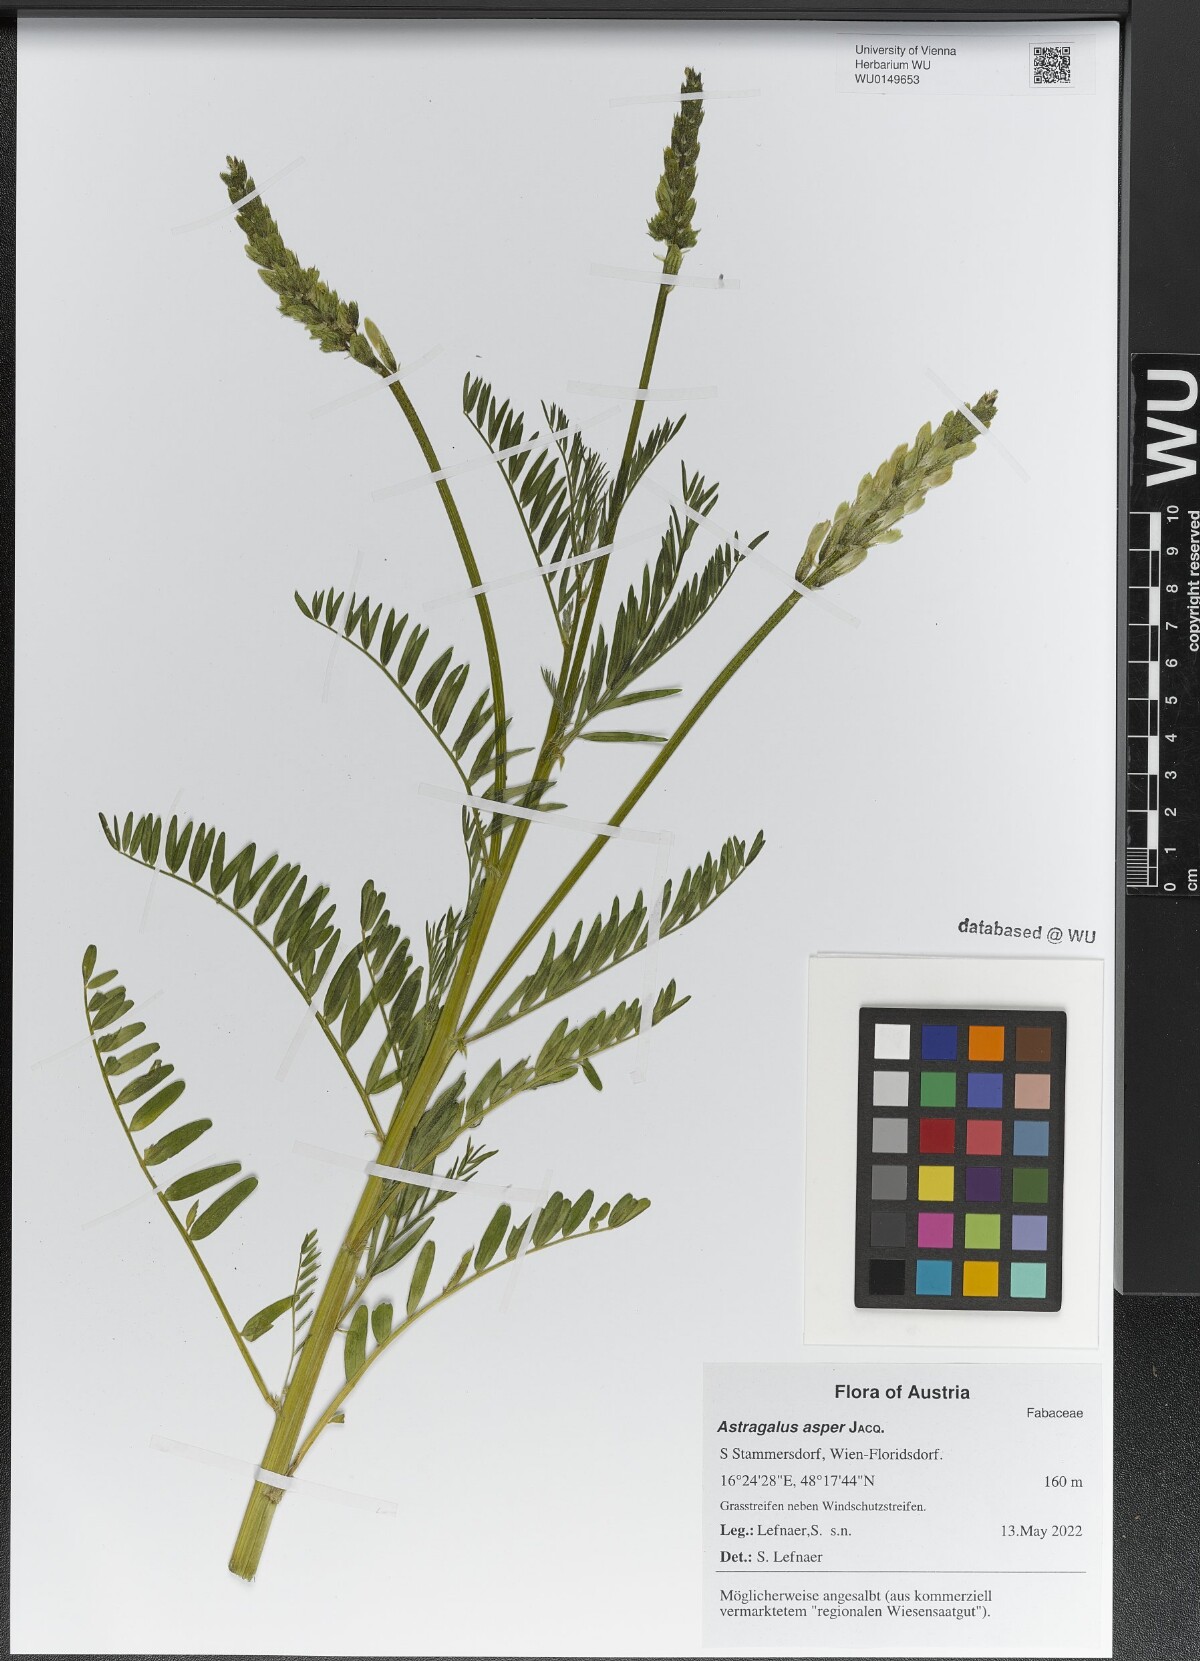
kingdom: Plantae
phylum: Tracheophyta
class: Magnoliopsida
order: Fabales
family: Fabaceae
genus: Astragalus
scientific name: Astragalus asper
